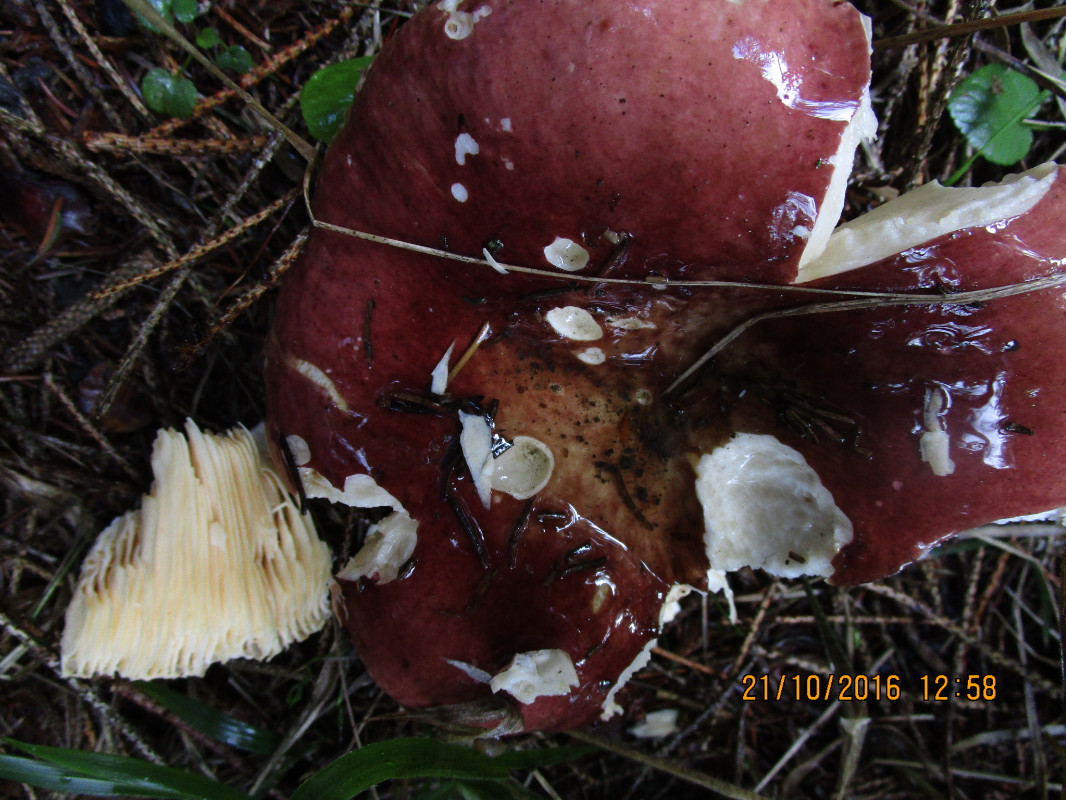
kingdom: Fungi
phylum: Basidiomycota
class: Agaricomycetes
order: Russulales
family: Russulaceae
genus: Russula
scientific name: Russula integra
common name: mandel-skørhat
